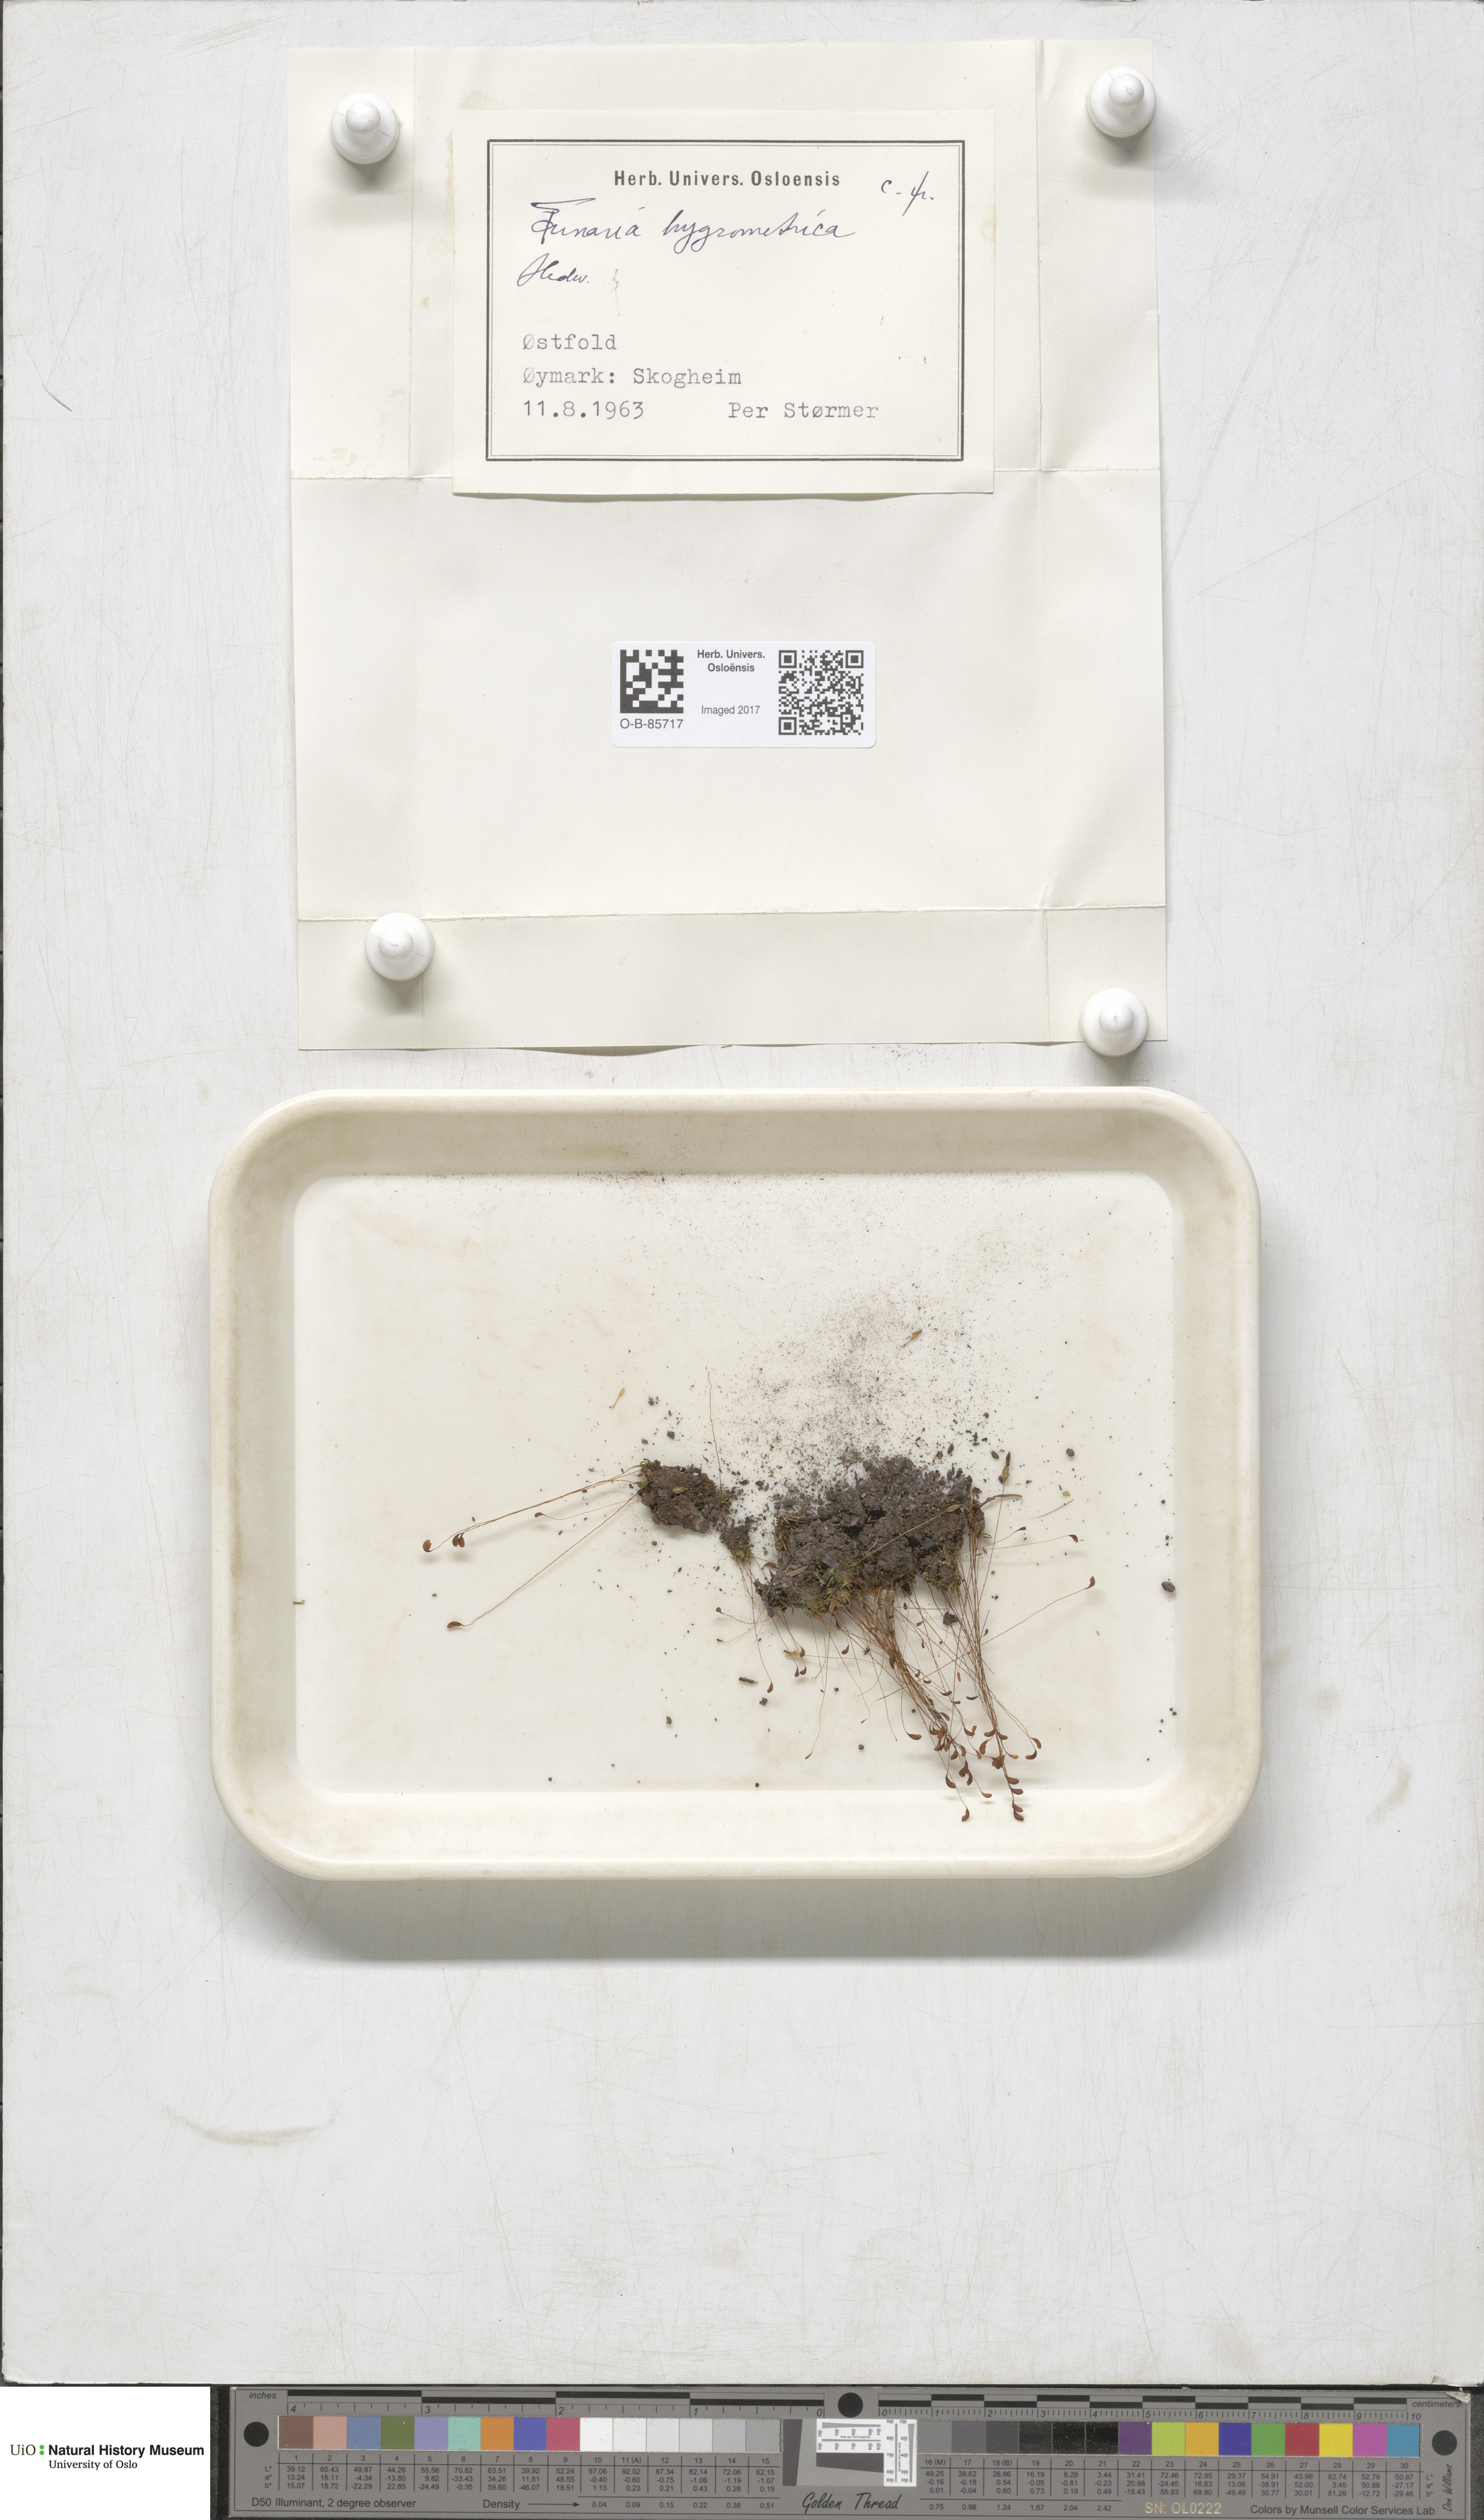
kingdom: Plantae
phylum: Bryophyta
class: Bryopsida
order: Funariales
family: Funariaceae
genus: Funaria
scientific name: Funaria hygrometrica
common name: Common cord moss
